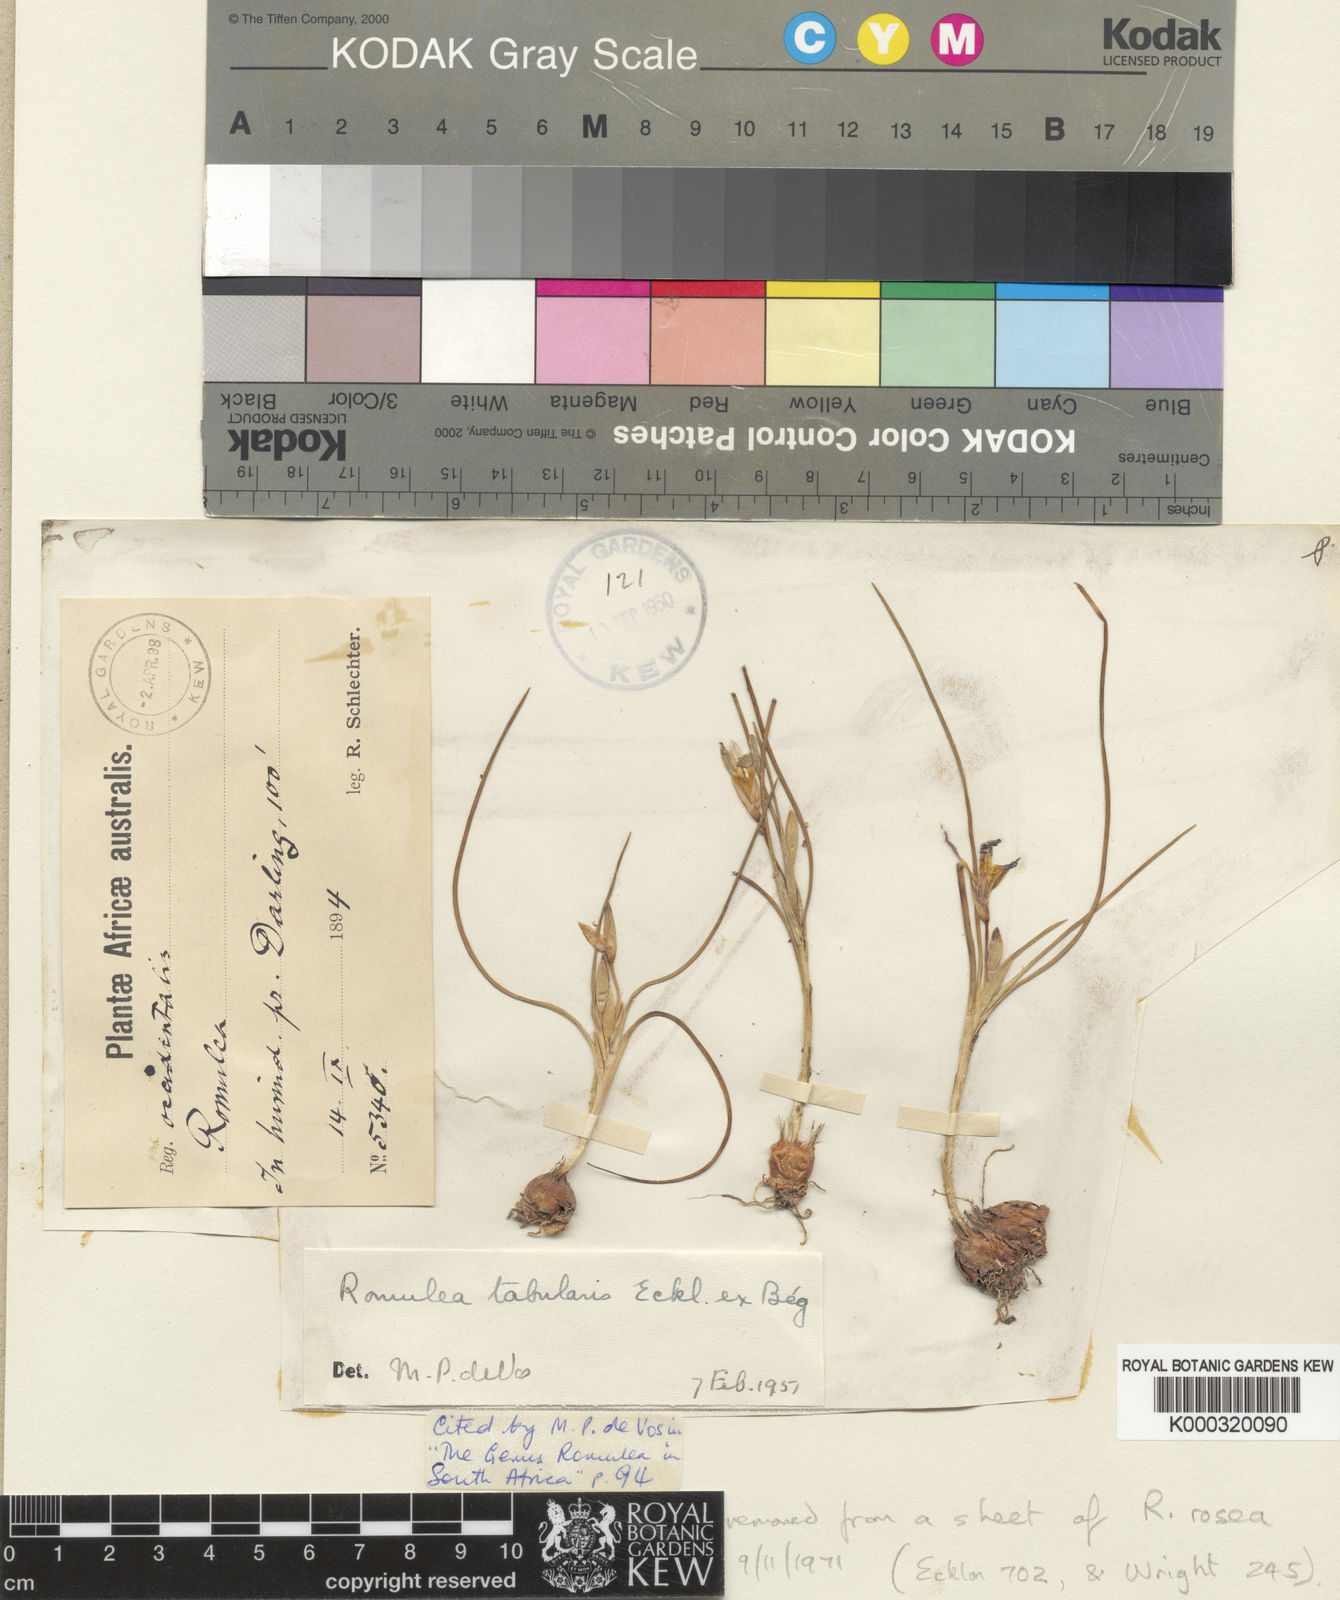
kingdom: Plantae
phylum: Tracheophyta
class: Liliopsida
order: Asparagales
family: Iridaceae
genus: Romulea
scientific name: Romulea
